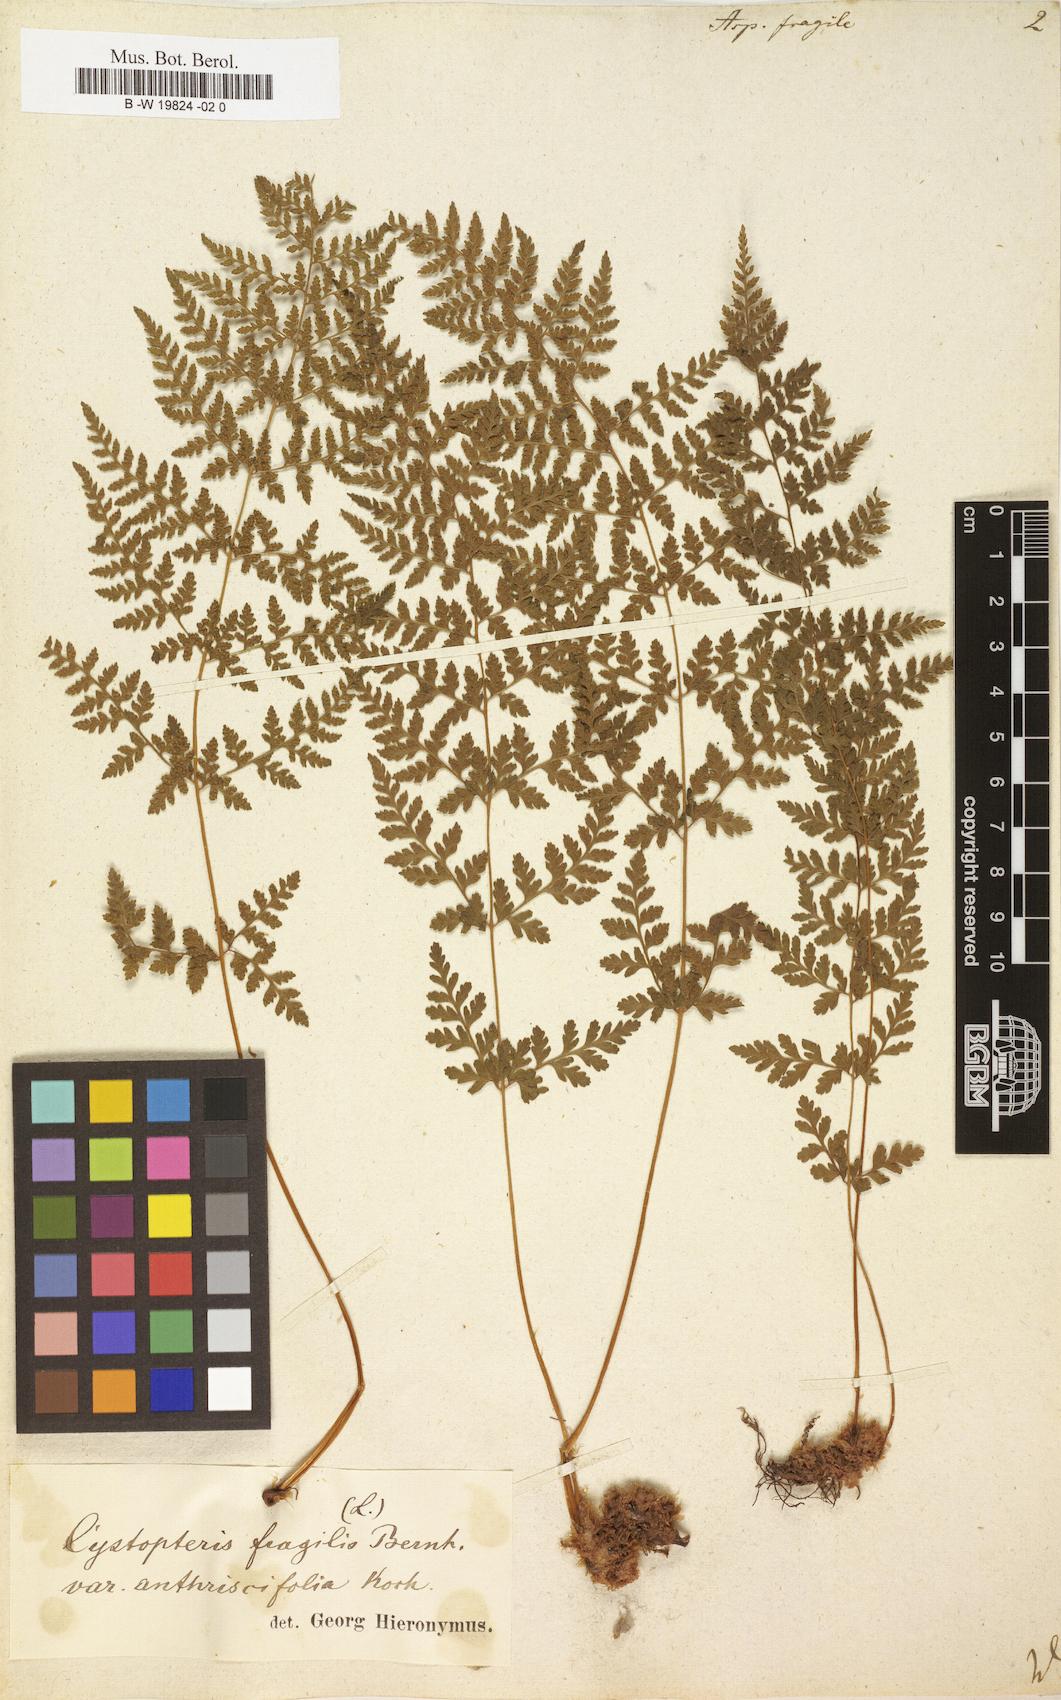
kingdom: Plantae
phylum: Tracheophyta
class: Polypodiopsida
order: Polypodiales
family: Cystopteridaceae
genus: Cystopteris
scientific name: Cystopteris fragilis
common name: Brittle bladder fern
